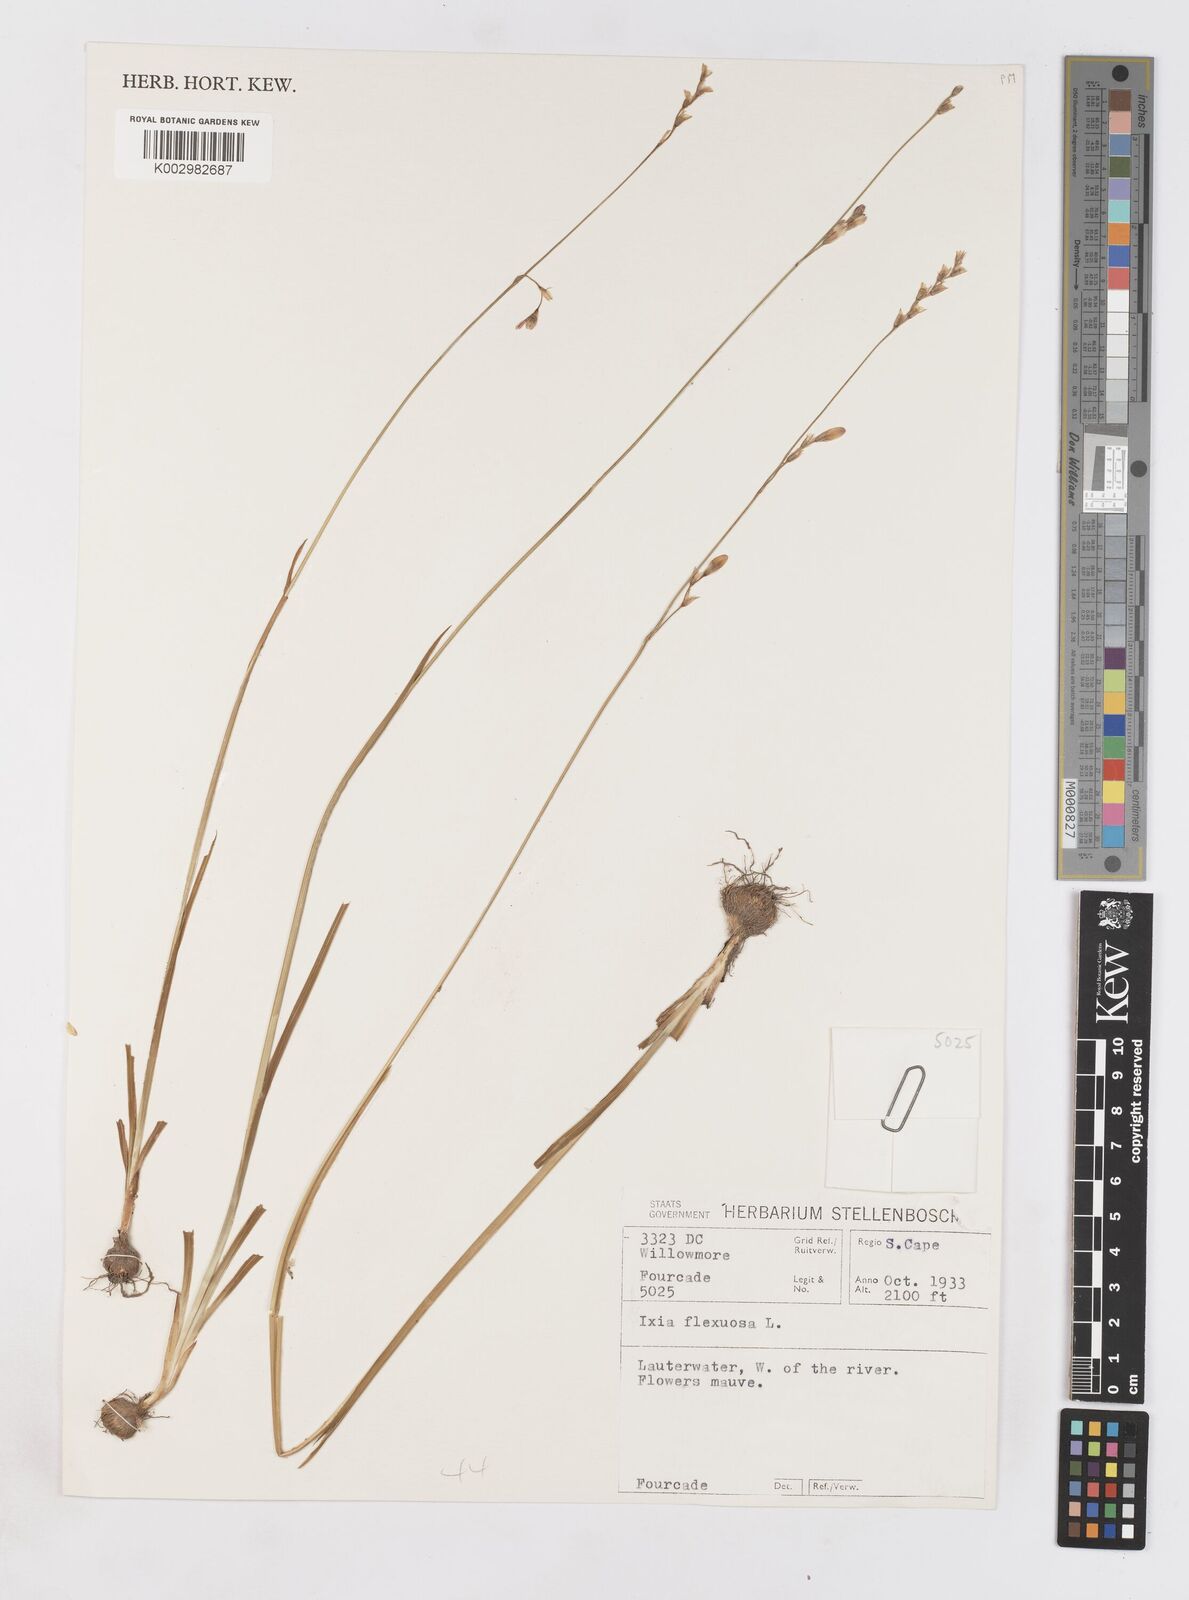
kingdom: Plantae
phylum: Tracheophyta
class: Liliopsida
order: Asparagales
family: Iridaceae
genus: Ixia
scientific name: Ixia flexuosa
